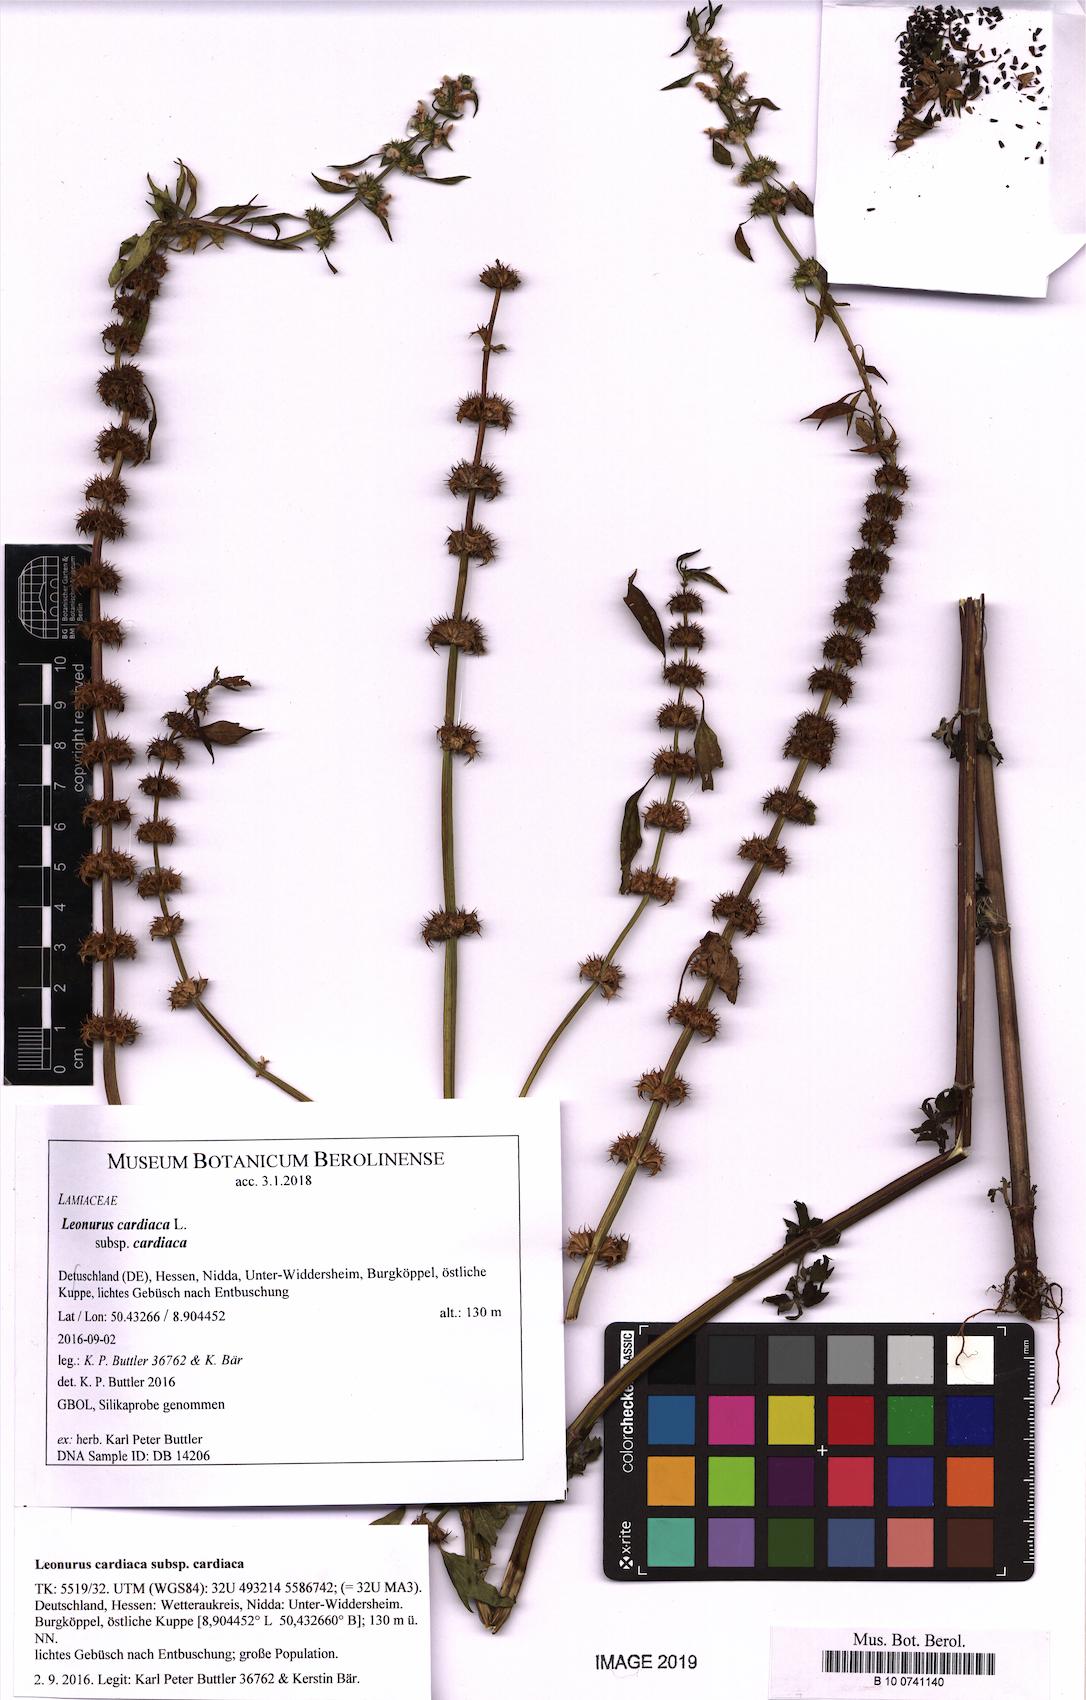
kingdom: Plantae
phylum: Tracheophyta
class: Magnoliopsida
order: Lamiales
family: Lamiaceae
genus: Leonurus
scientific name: Leonurus cardiaca
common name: Motherwort
